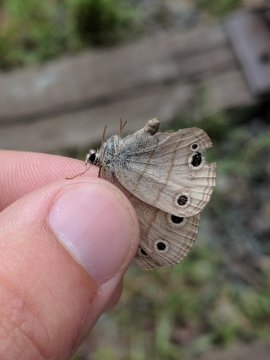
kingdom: Animalia
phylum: Arthropoda
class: Insecta
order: Lepidoptera
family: Nymphalidae
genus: Euptychia
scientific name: Euptychia cymela
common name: Little Wood Satyr
